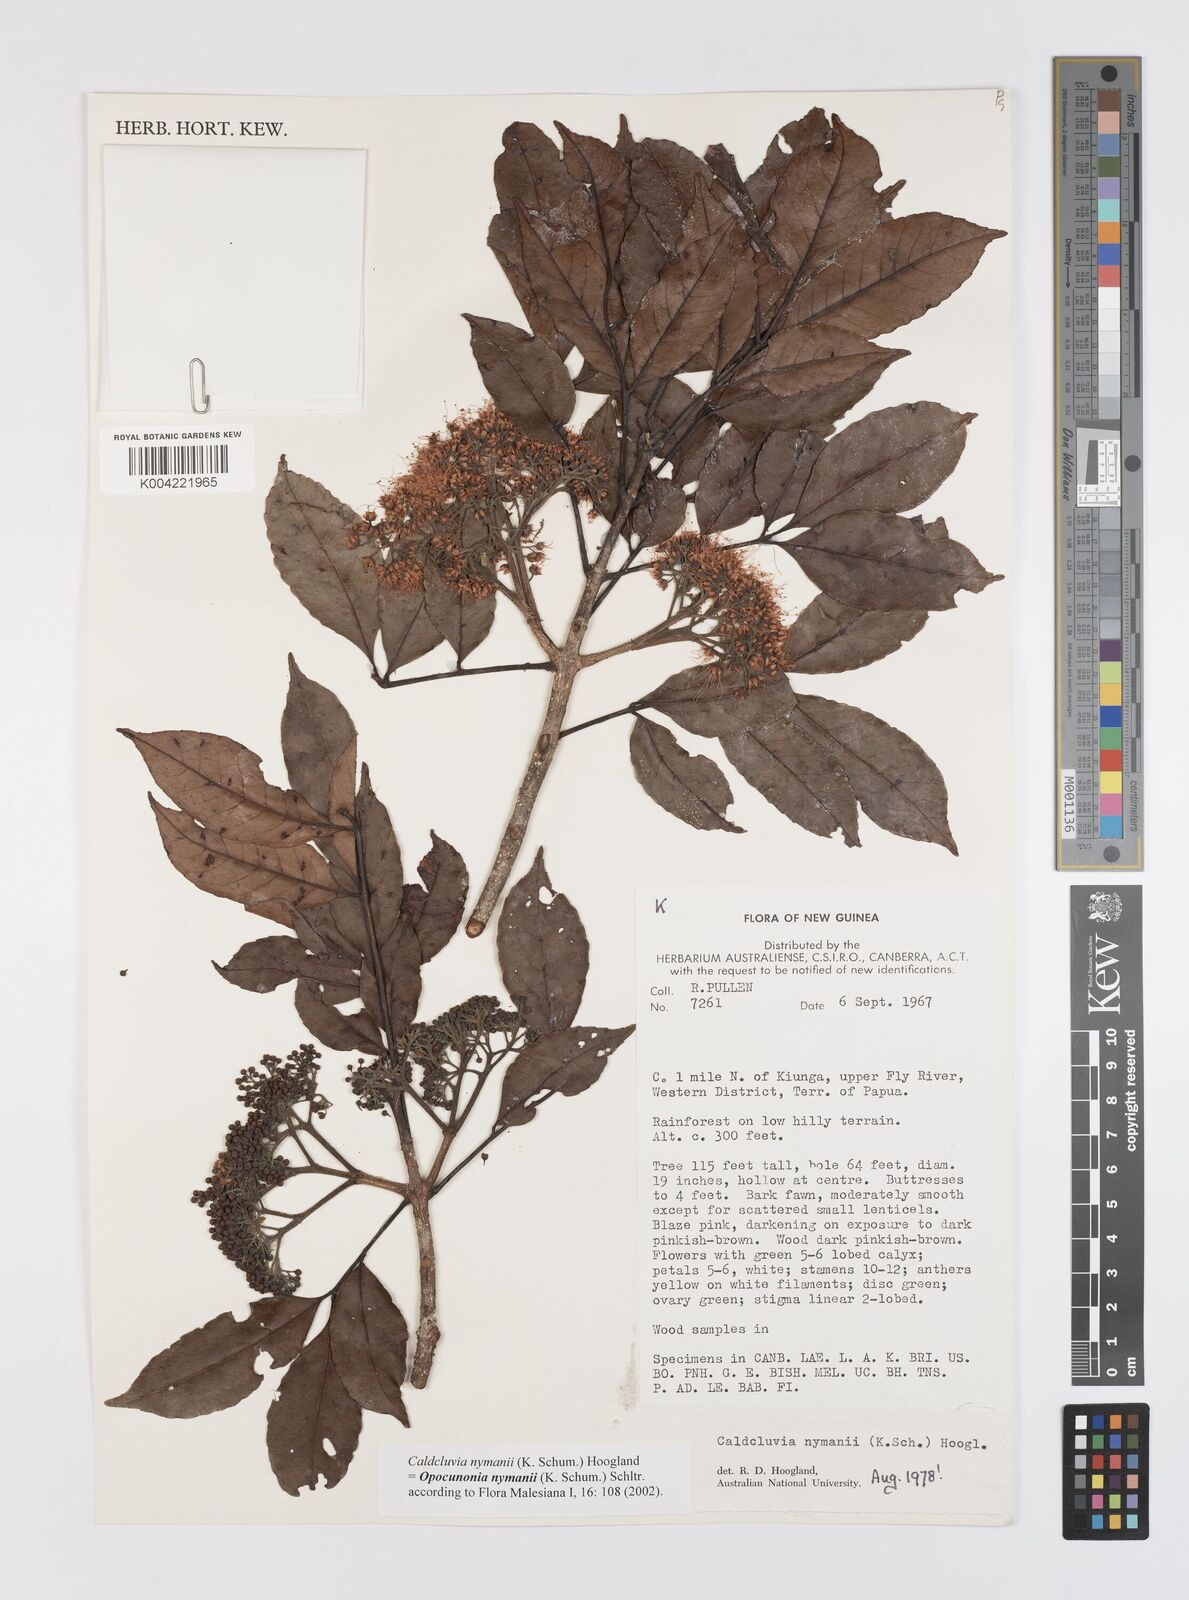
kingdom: Plantae
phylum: Tracheophyta
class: Magnoliopsida
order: Oxalidales
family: Cunoniaceae
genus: Opocunonia
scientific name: Opocunonia nymanii
